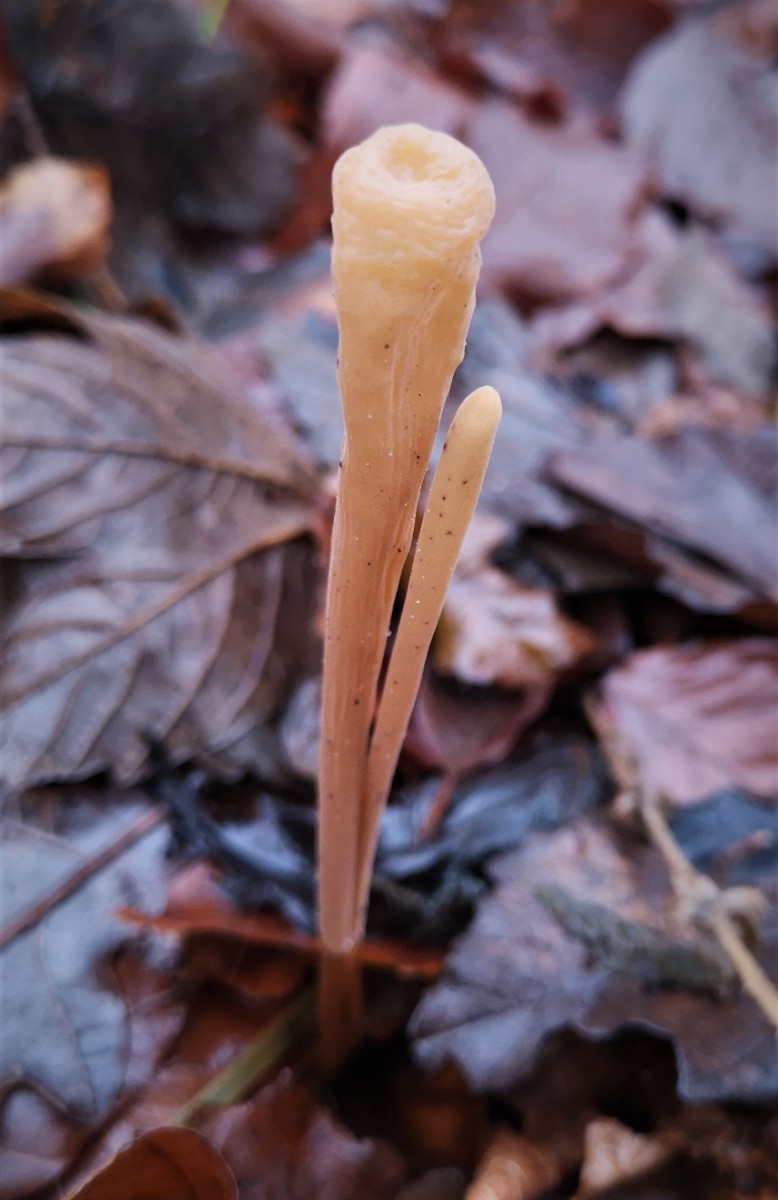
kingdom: Fungi
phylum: Basidiomycota
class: Agaricomycetes
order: Agaricales
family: Typhulaceae
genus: Typhula
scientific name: Typhula fistulosa
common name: pibet rørkølle
